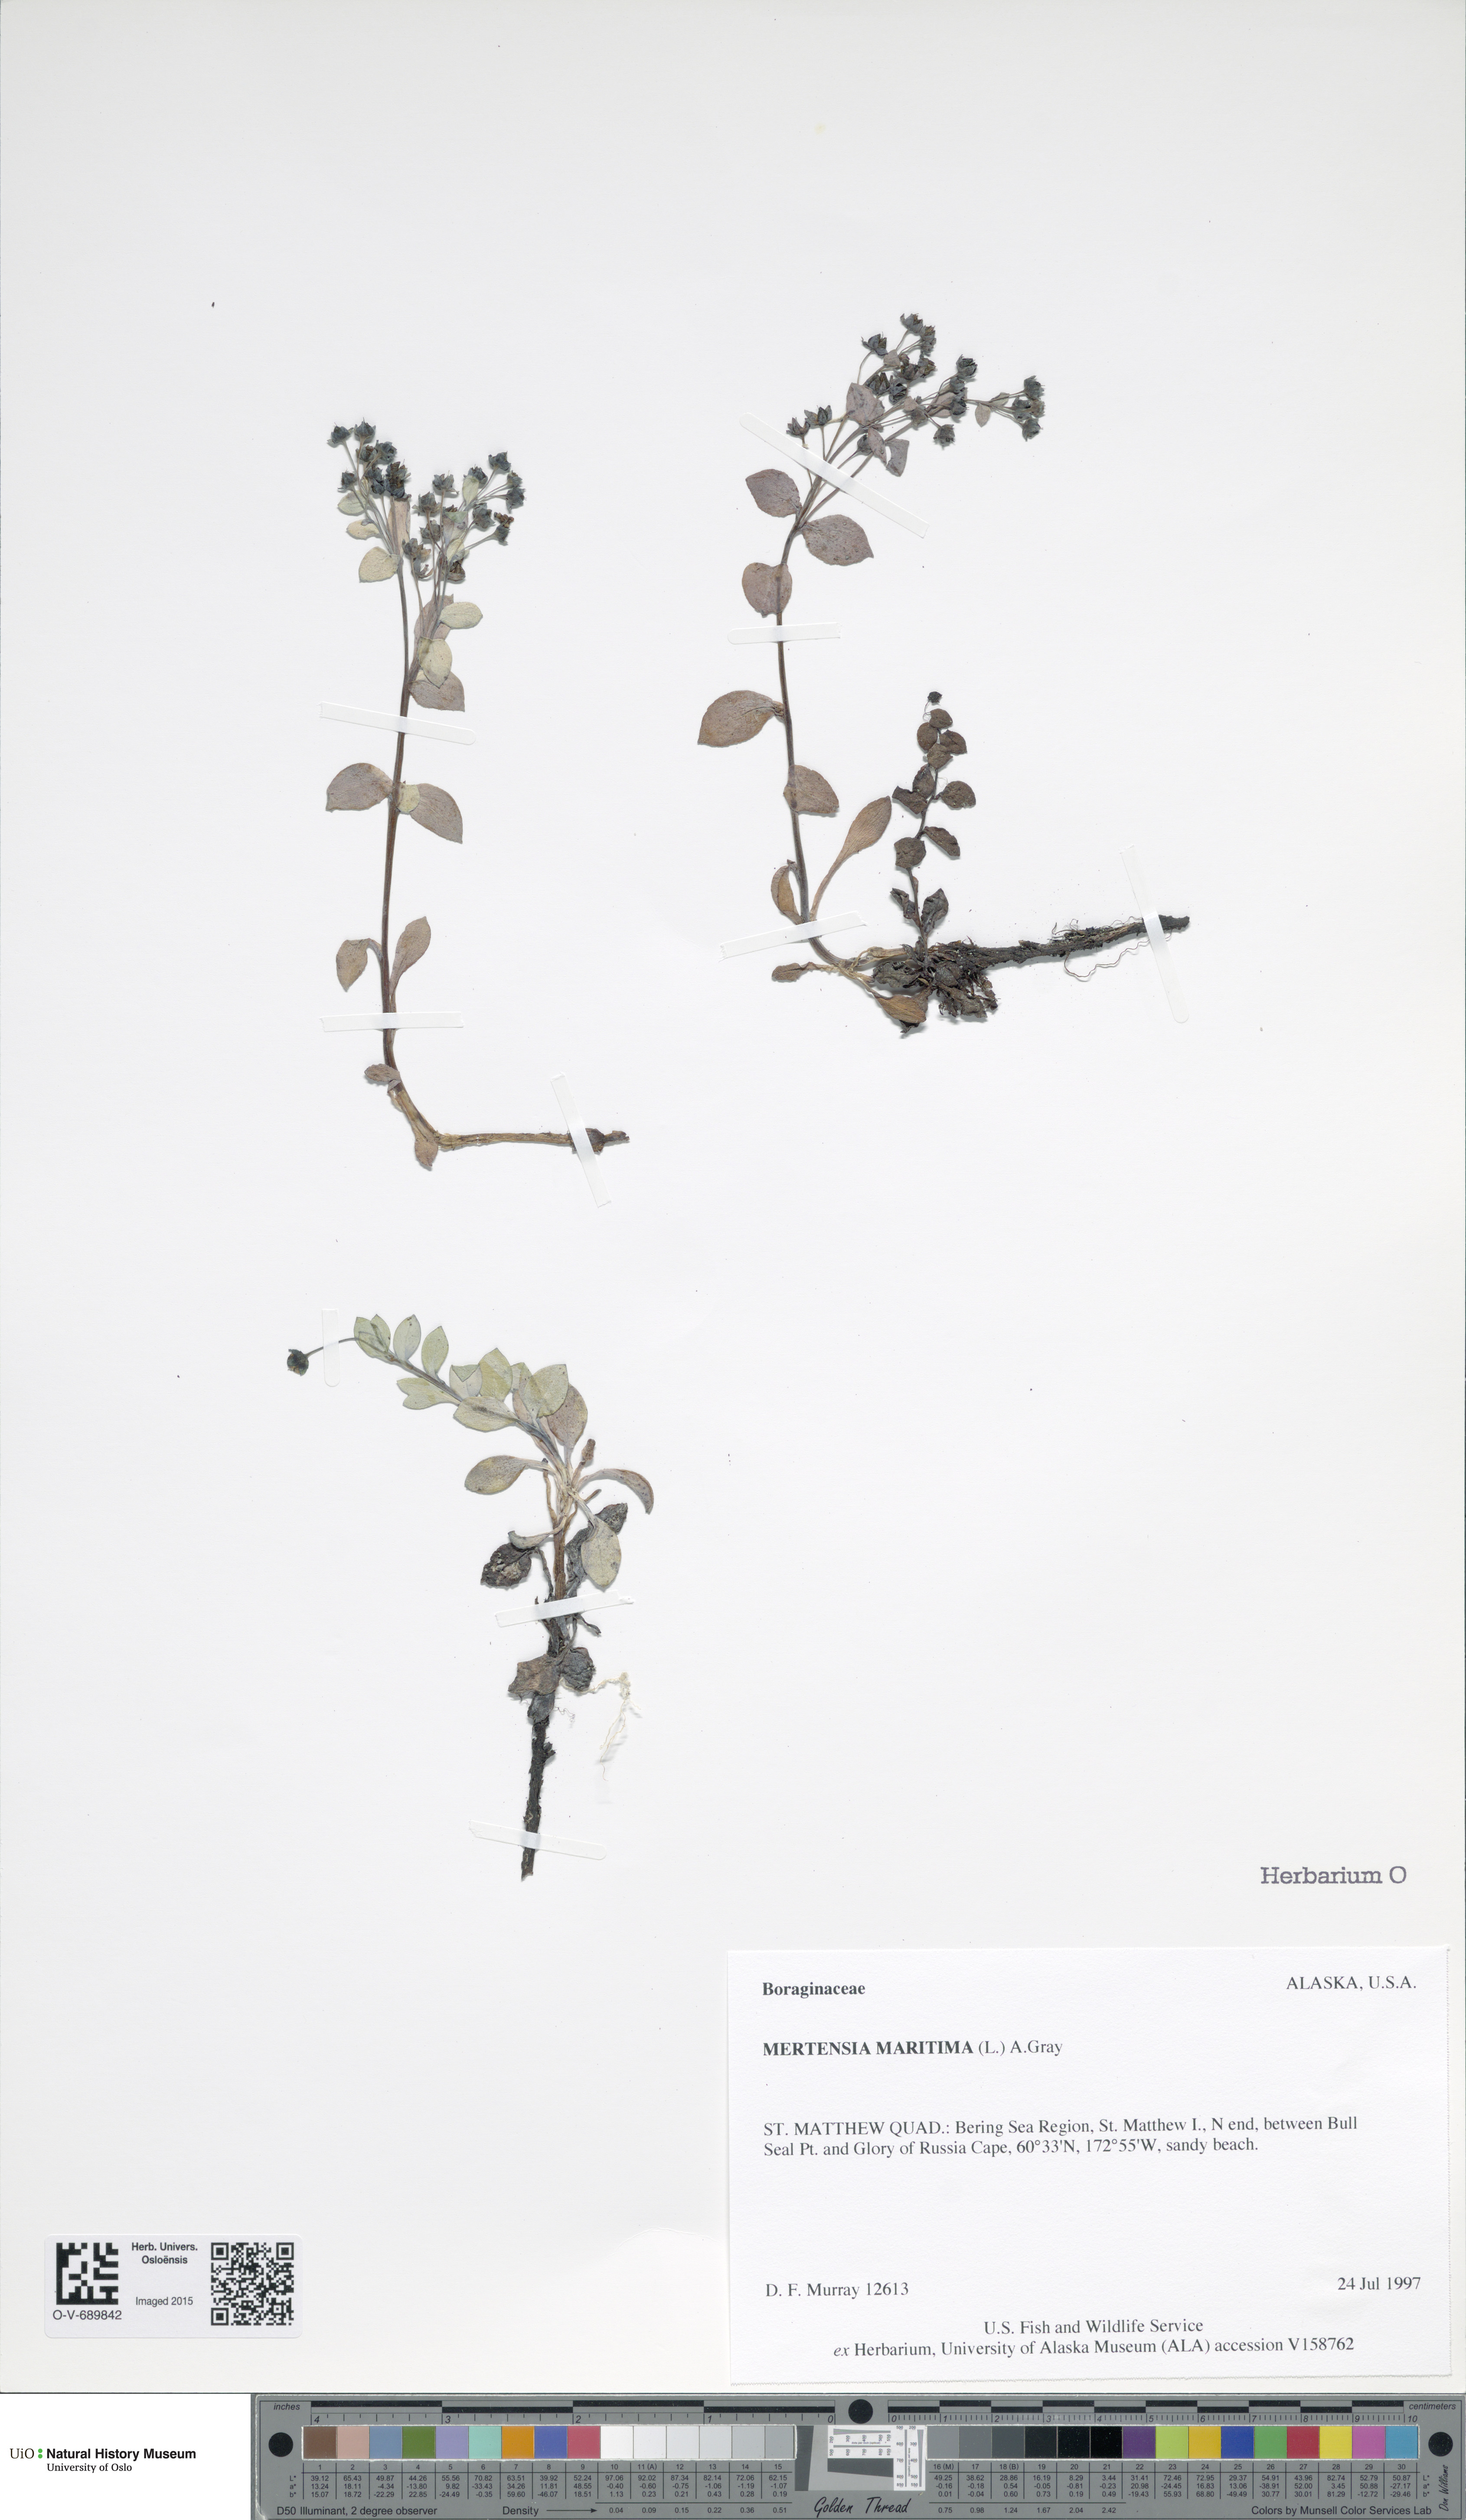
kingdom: Plantae
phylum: Tracheophyta
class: Magnoliopsida
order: Boraginales
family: Boraginaceae
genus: Mertensia
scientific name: Mertensia maritima
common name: Oysterplant
